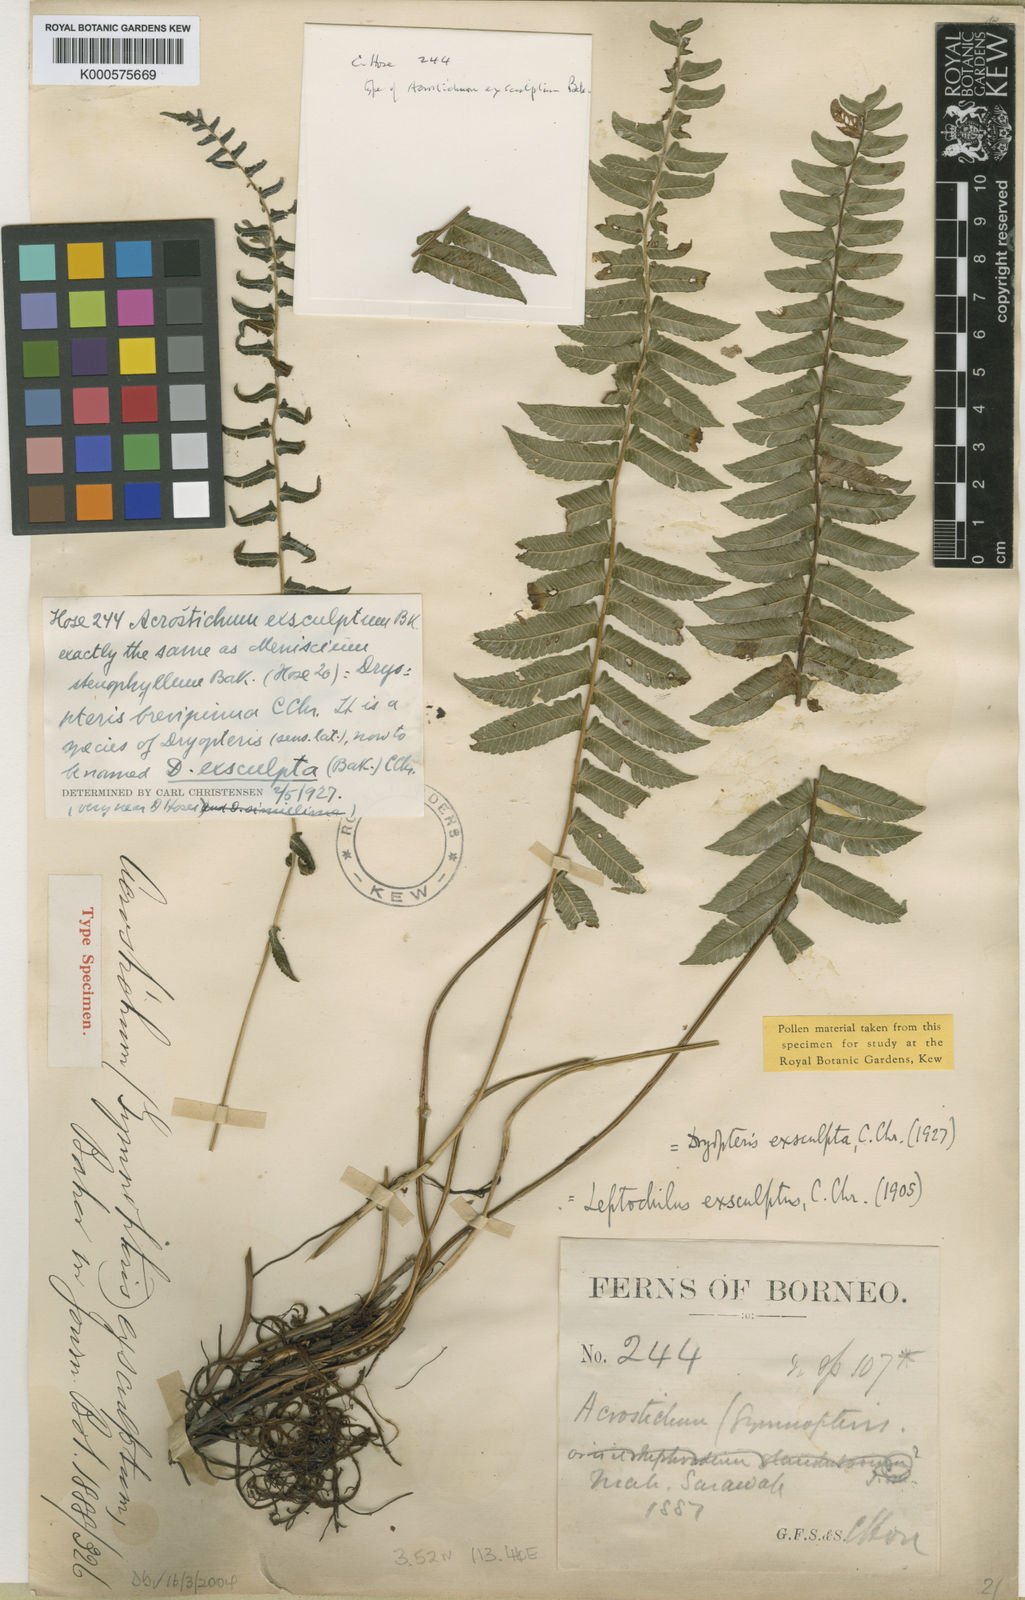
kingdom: Plantae
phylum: Tracheophyta
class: Polypodiopsida
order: Polypodiales
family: Thelypteridaceae
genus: Pronephrium
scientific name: Pronephrium exsculptum
